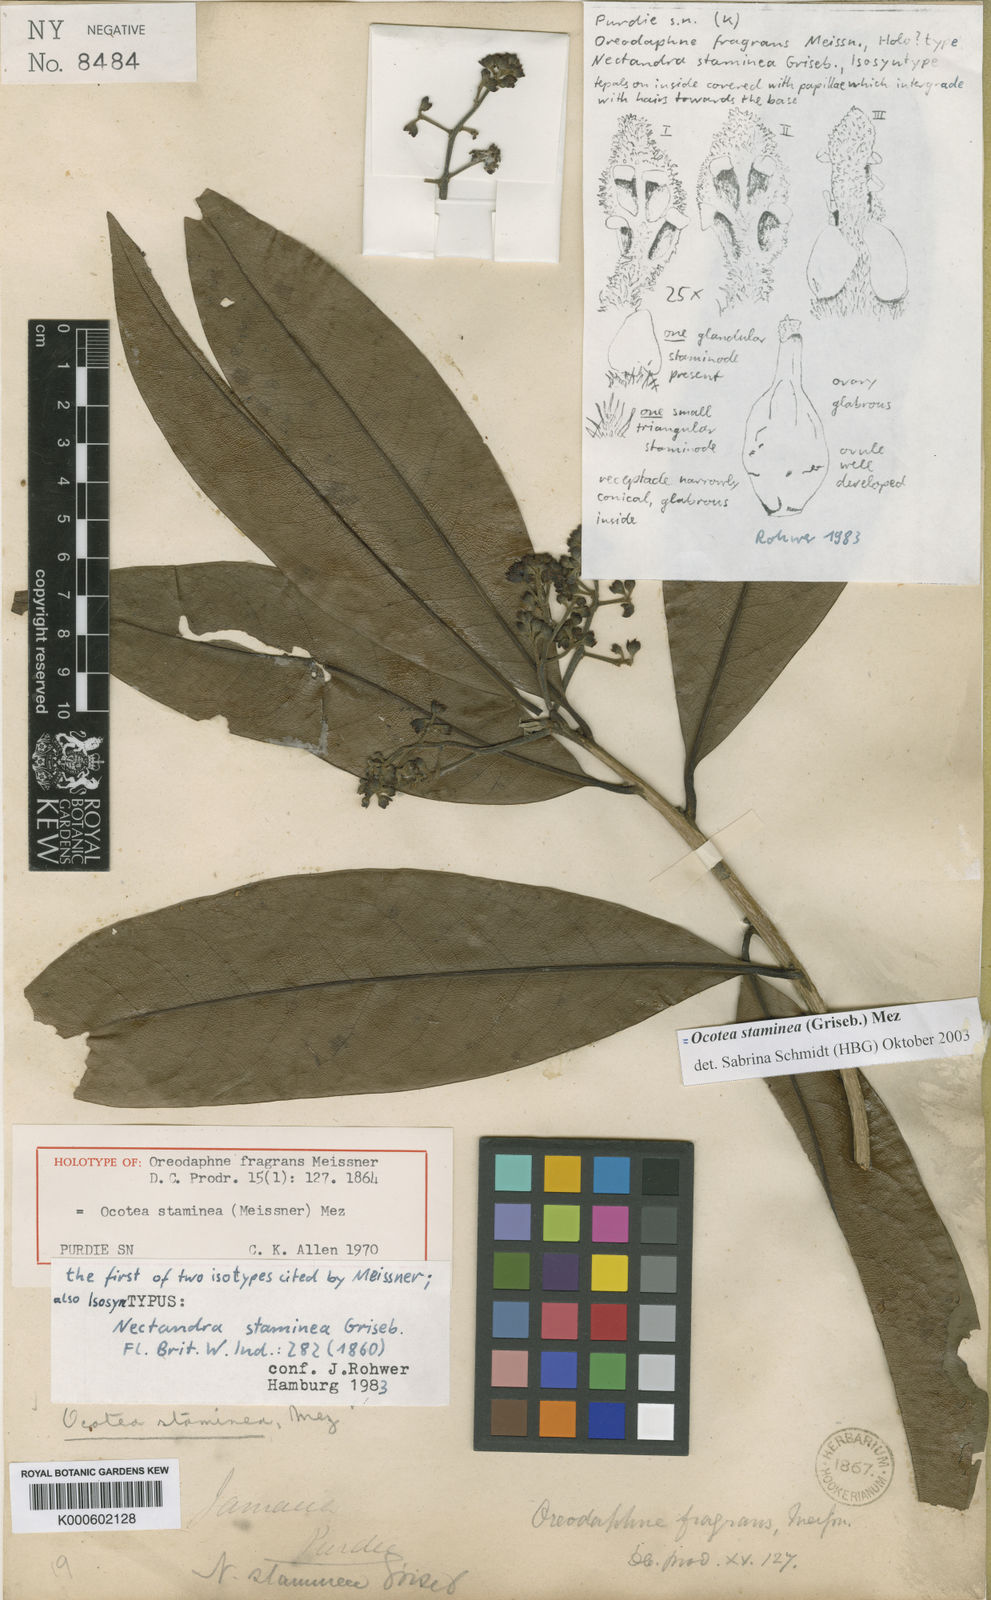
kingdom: Plantae
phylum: Tracheophyta
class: Magnoliopsida
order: Laurales
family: Lauraceae
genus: Mespilodaphne
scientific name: Mespilodaphne staminea
